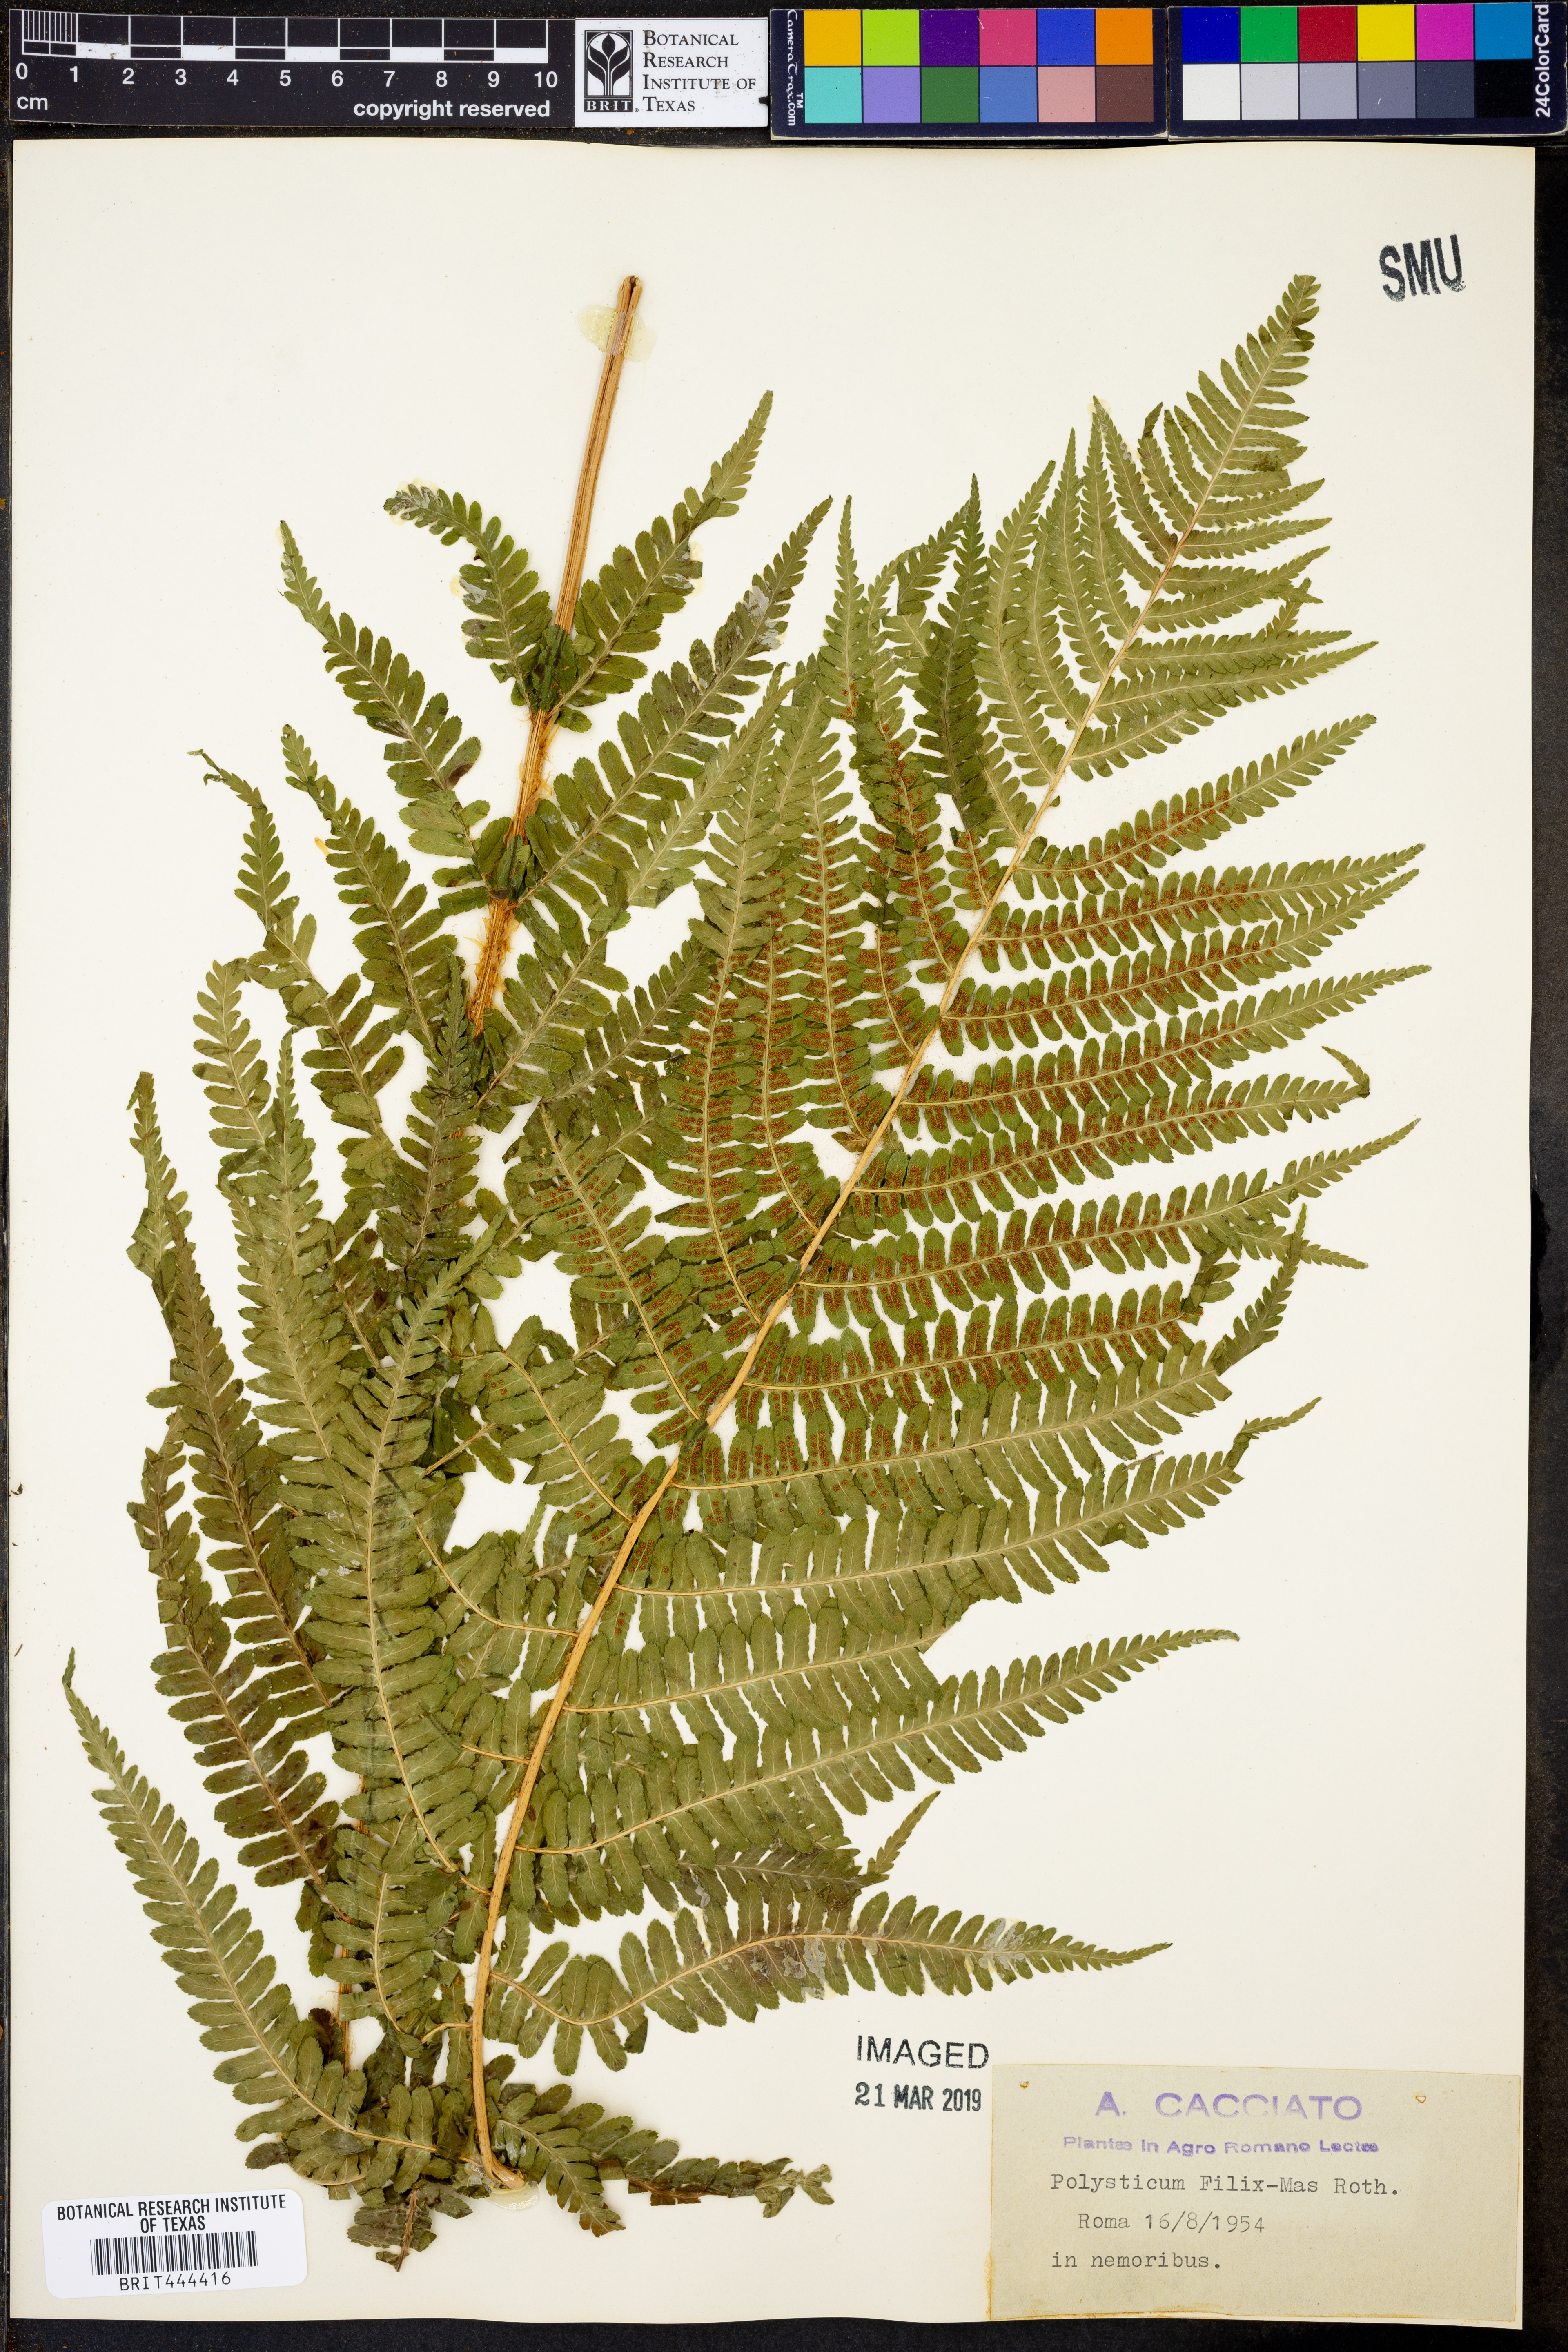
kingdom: Plantae
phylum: Tracheophyta
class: Polypodiopsida
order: Polypodiales
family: Dryopteridaceae
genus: Dryopteris
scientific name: Dryopteris filix-mas
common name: Male fern
